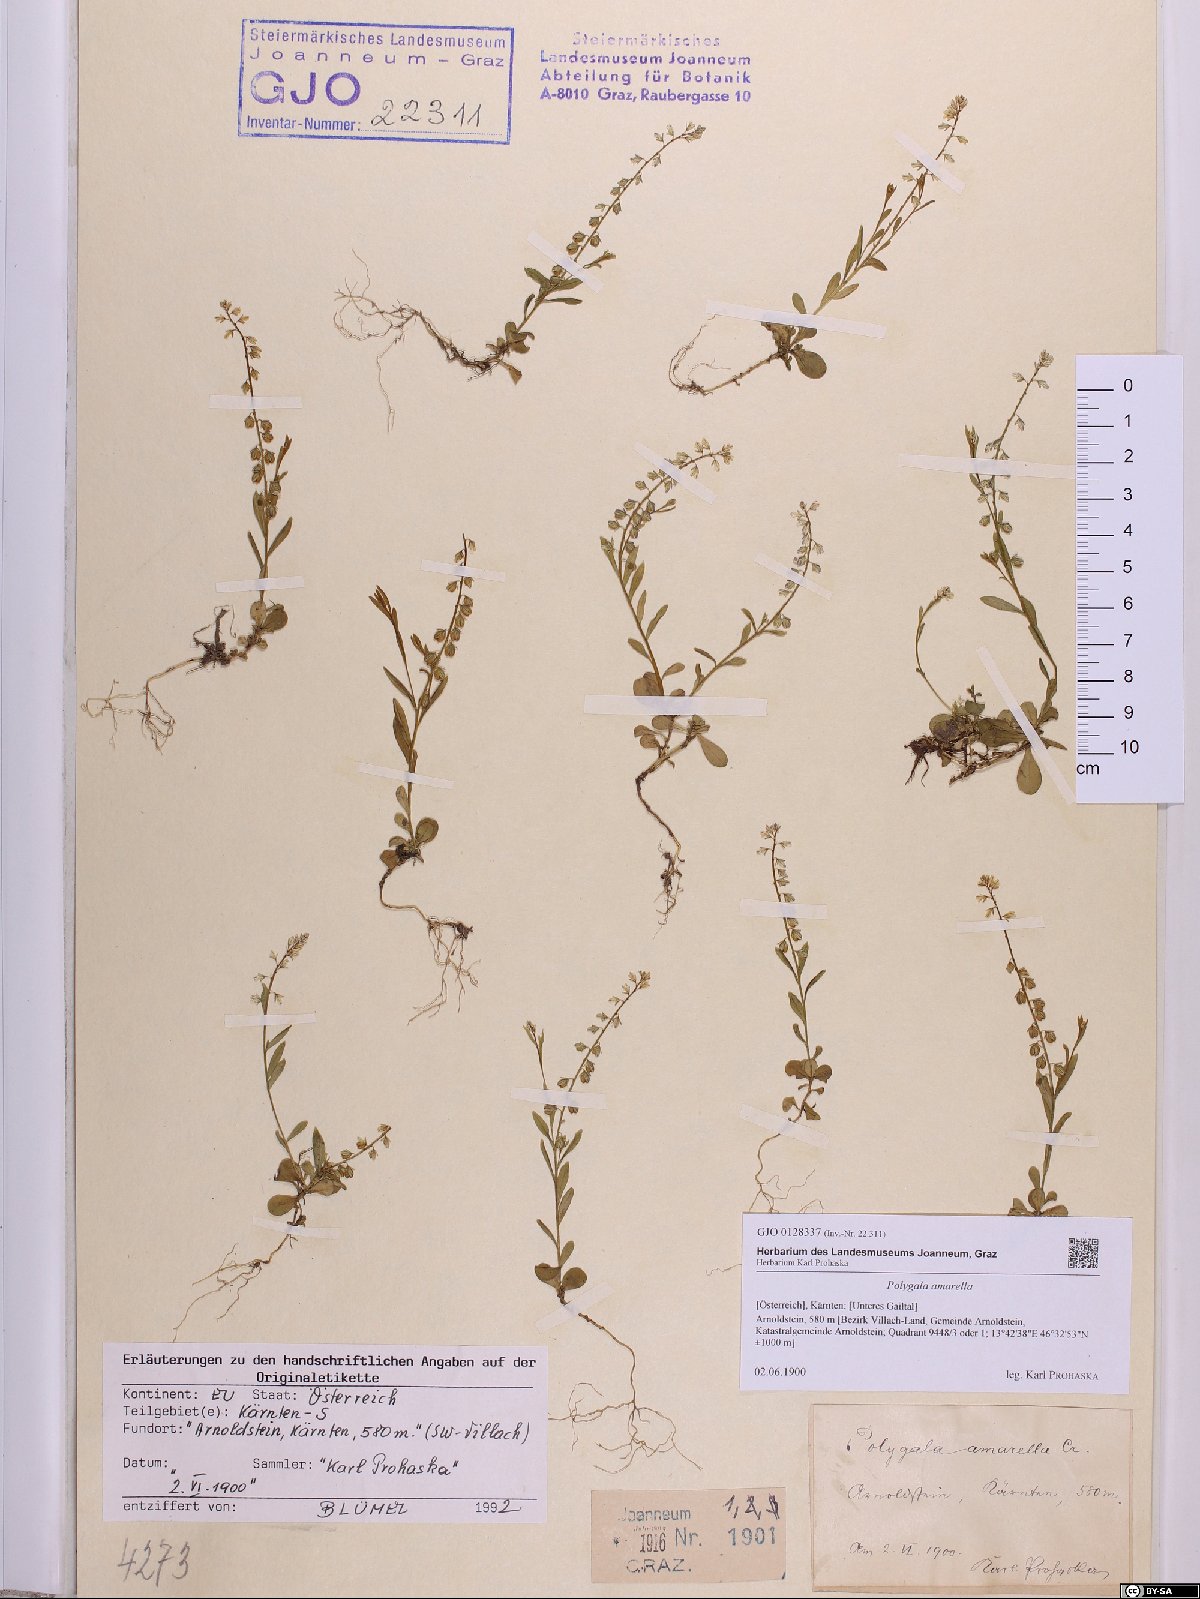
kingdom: Plantae
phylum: Tracheophyta
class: Magnoliopsida
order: Fabales
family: Polygalaceae
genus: Polygala
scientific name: Polygala amarella
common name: Dwarf milkwort
